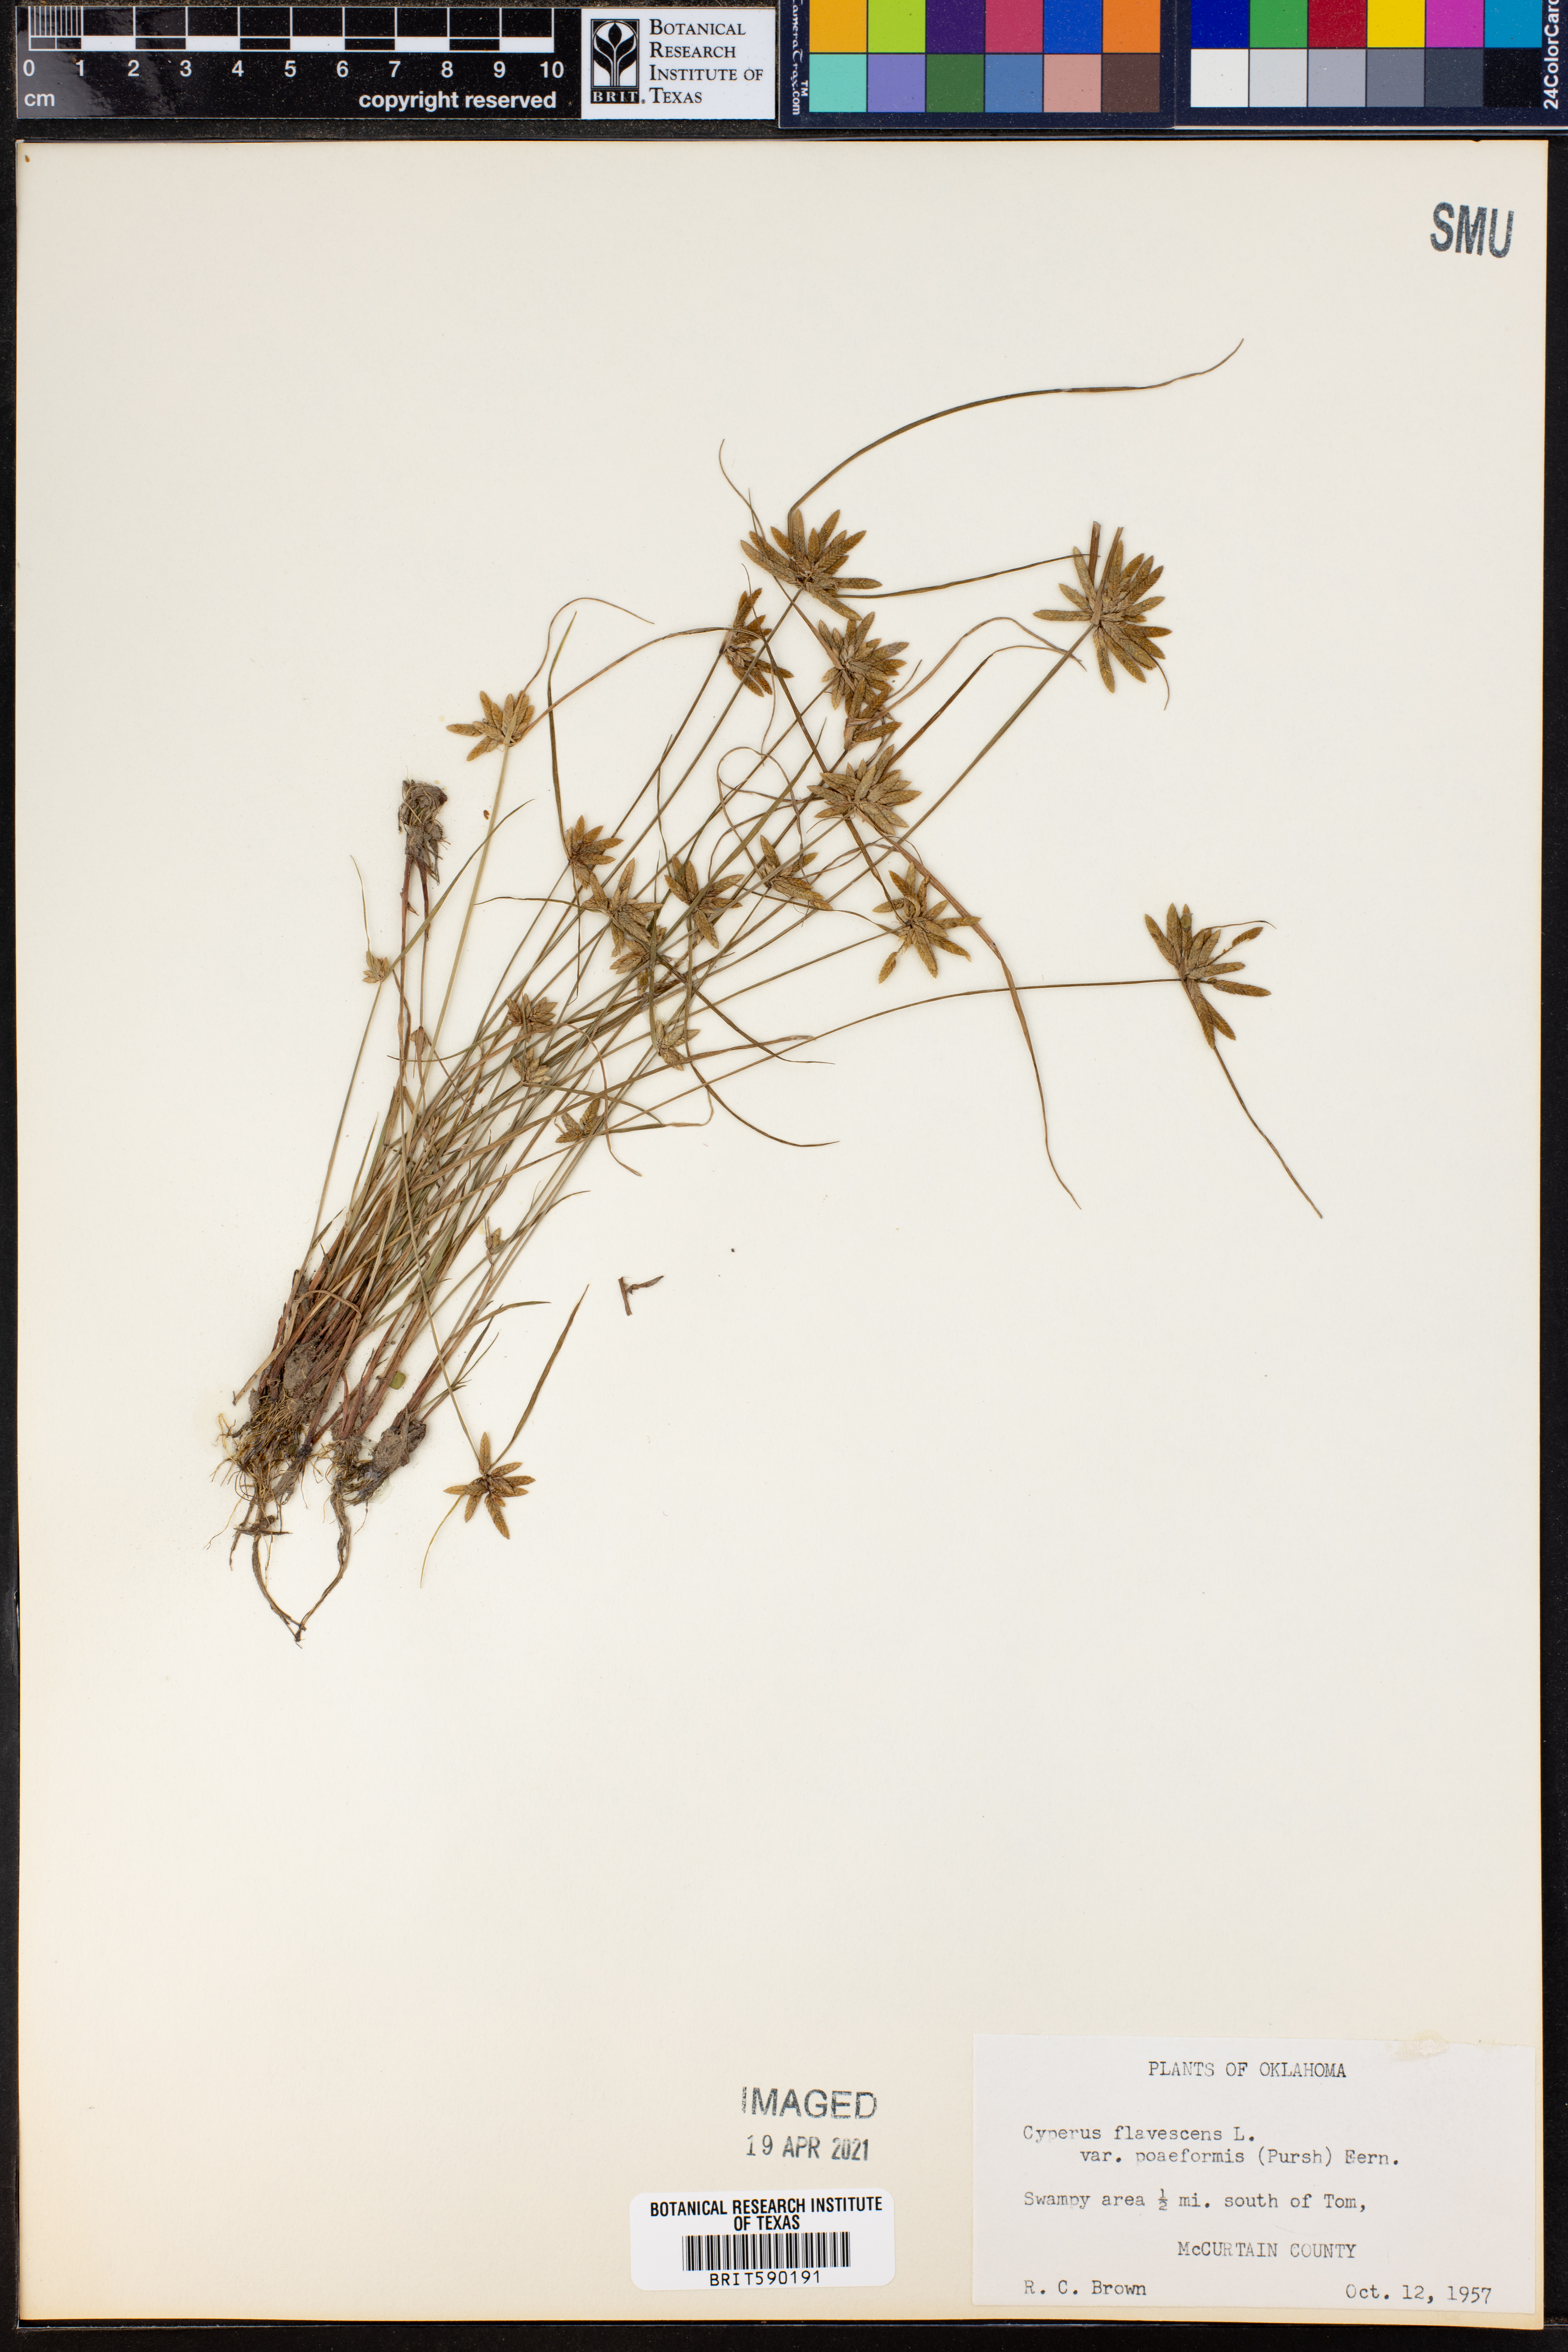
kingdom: Plantae
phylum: Tracheophyta
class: Liliopsida
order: Poales
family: Cyperaceae
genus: Cyperus
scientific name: Cyperus flavescens
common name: Yellow galingale
